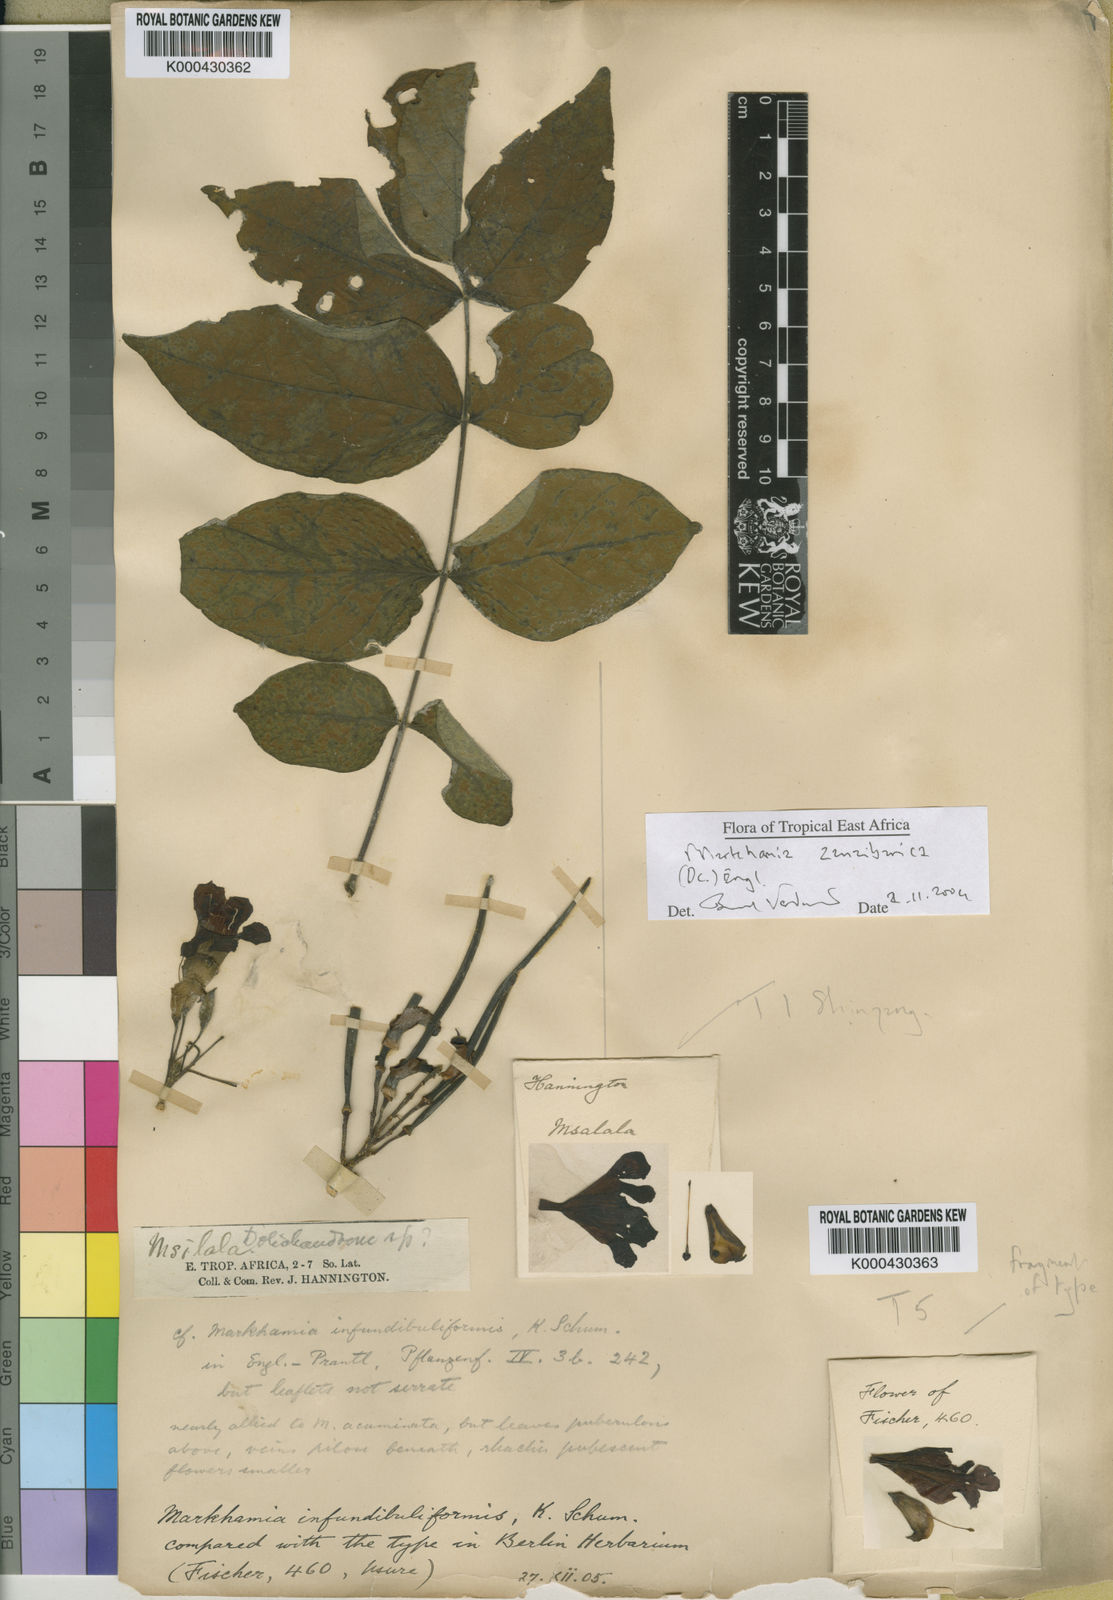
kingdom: Plantae
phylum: Tracheophyta
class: Magnoliopsida
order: Lamiales
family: Bignoniaceae
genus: Markhamia
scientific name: Markhamia zanzibarica
